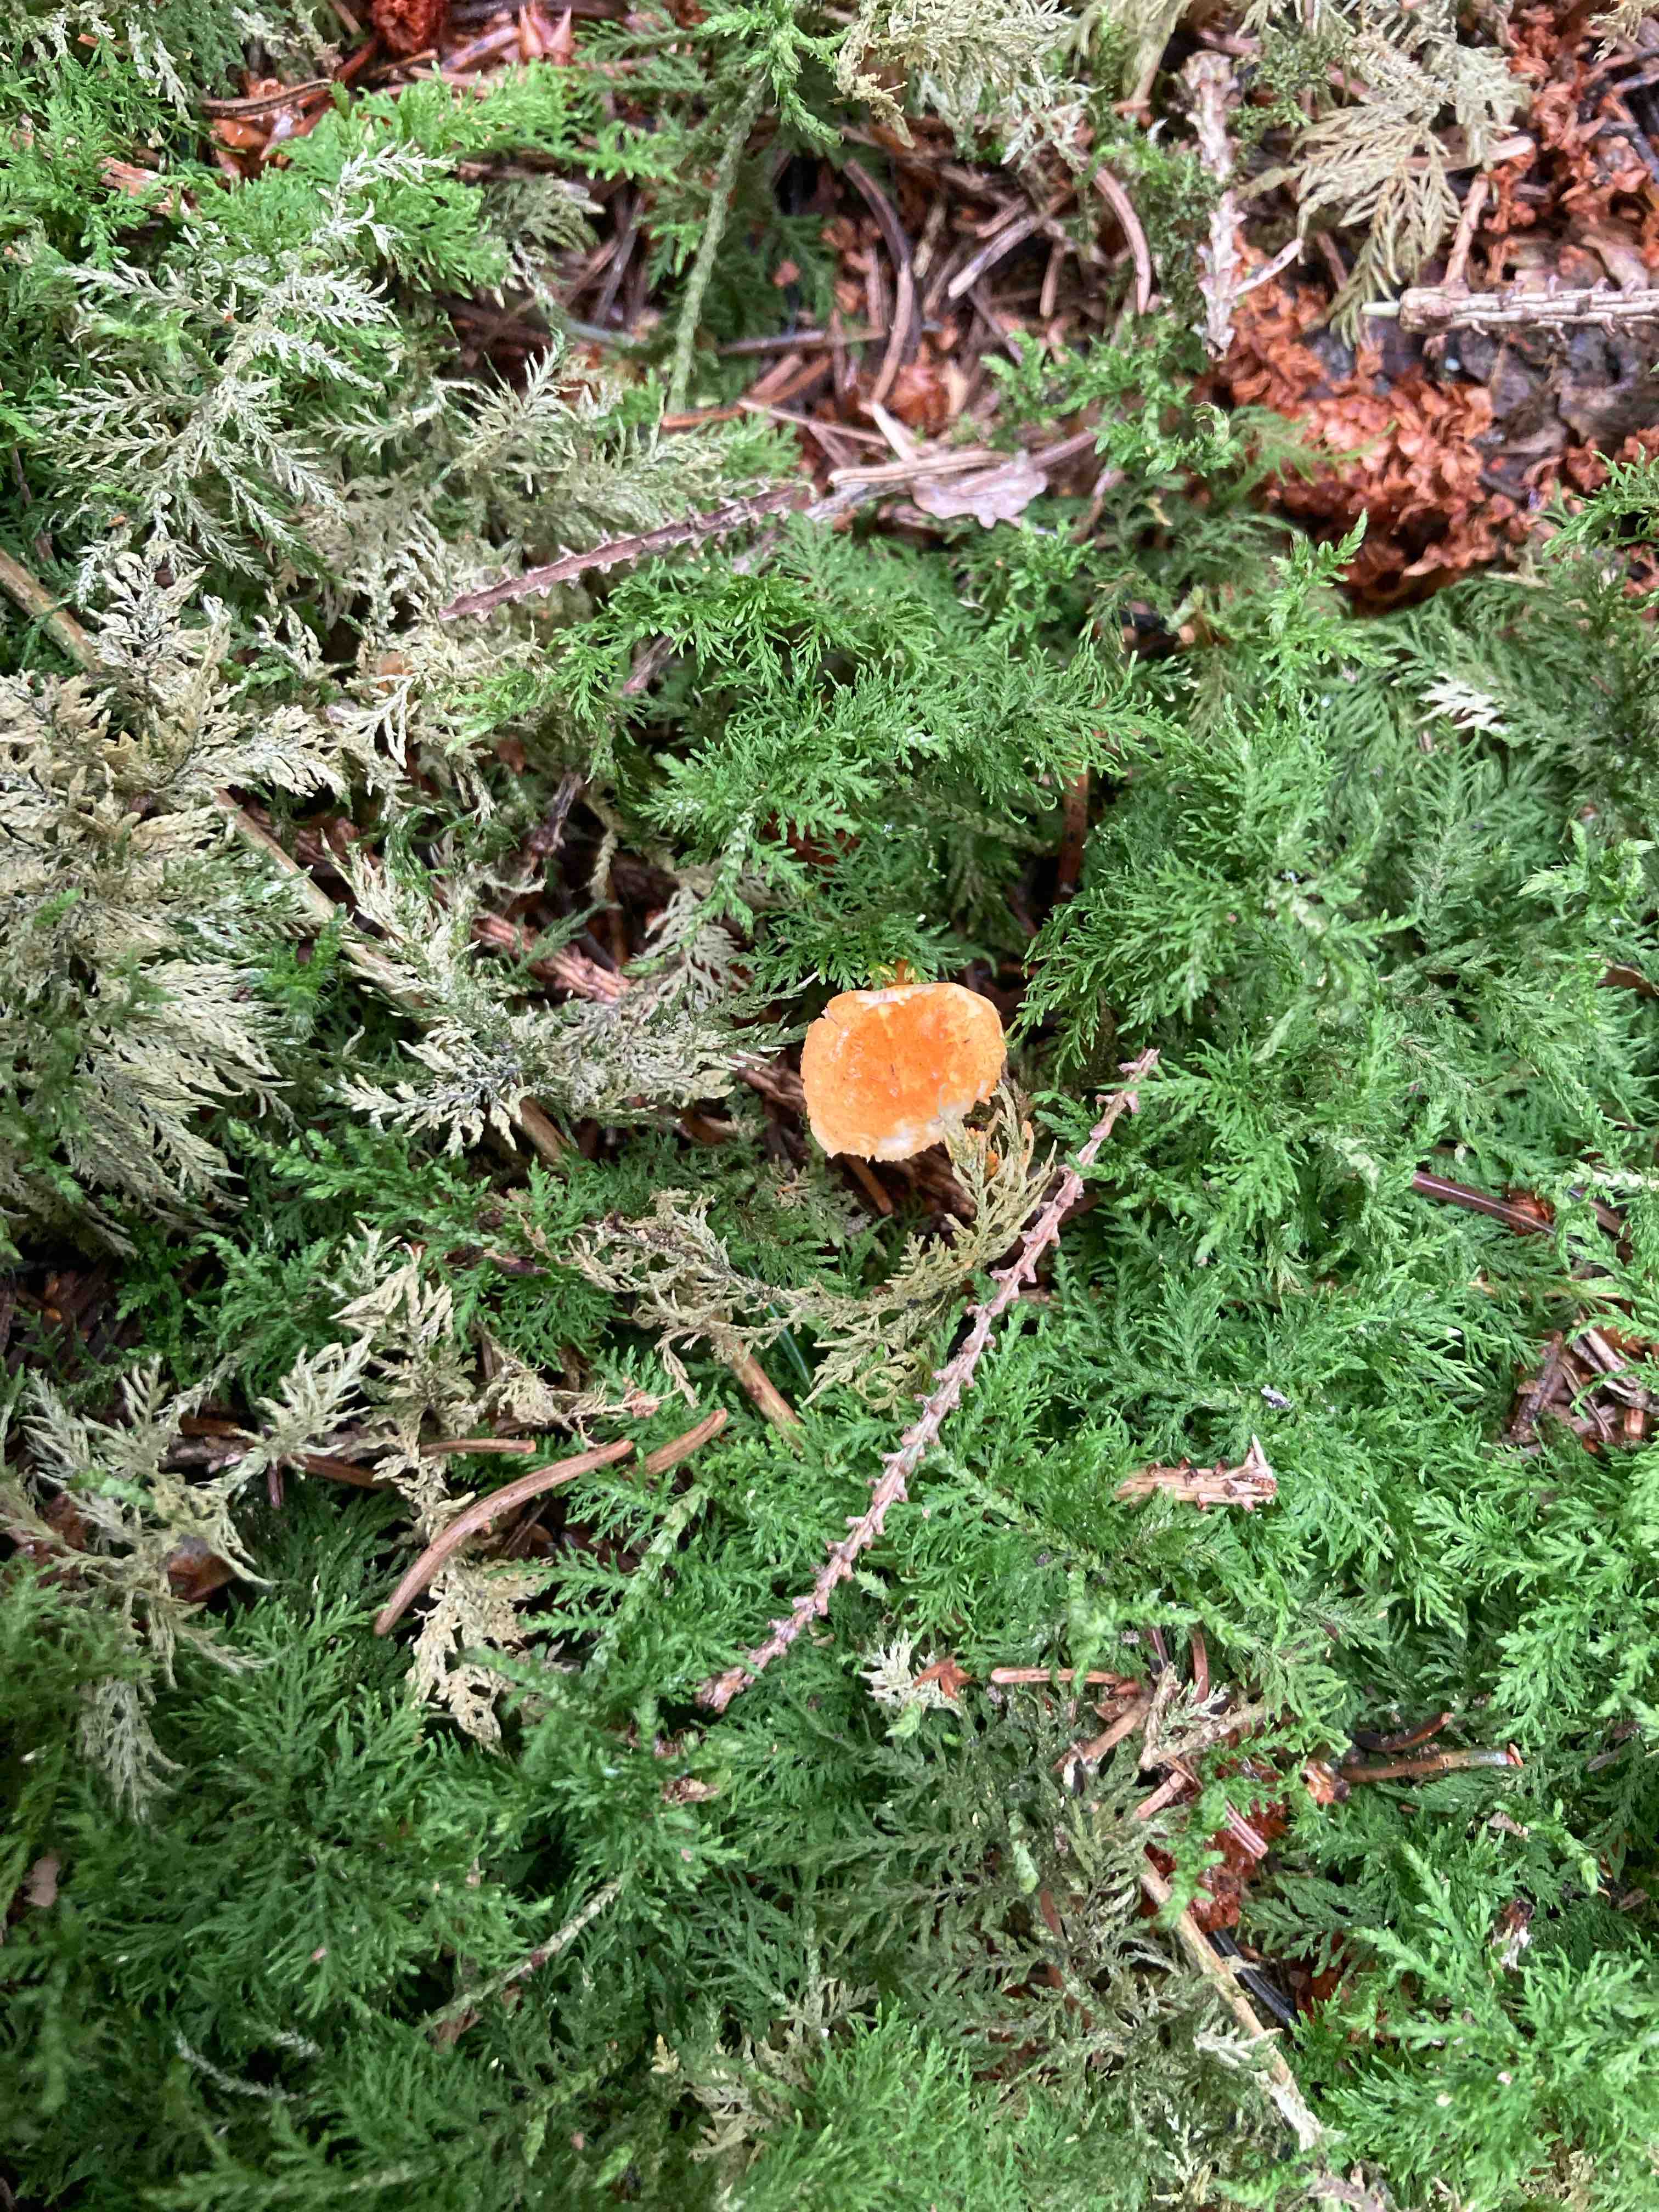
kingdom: Fungi
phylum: Basidiomycota
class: Agaricomycetes
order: Boletales
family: Hygrophoropsidaceae
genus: Hygrophoropsis
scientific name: Hygrophoropsis aurantiaca
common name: almindelig orangekantarel
